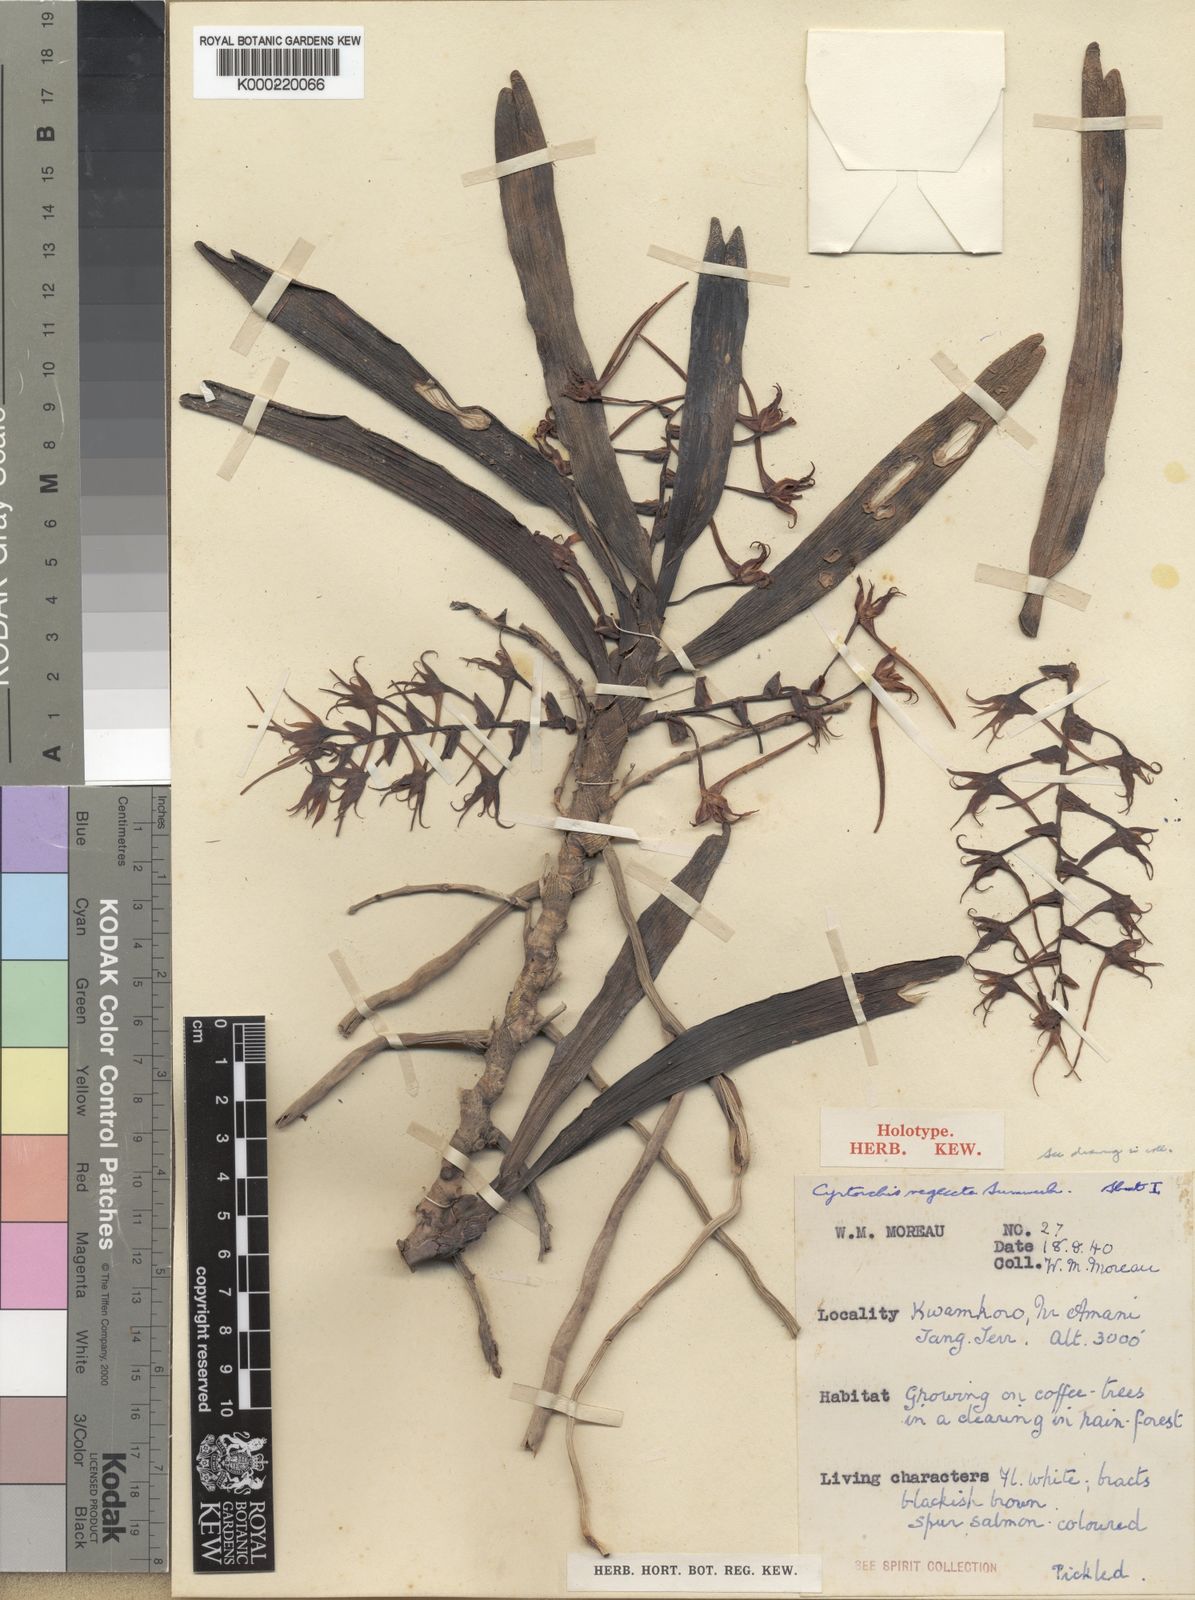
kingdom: Plantae
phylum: Tracheophyta
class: Liliopsida
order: Asparagales
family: Orchidaceae
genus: Cyrtorchis
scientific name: Cyrtorchis neglecta
